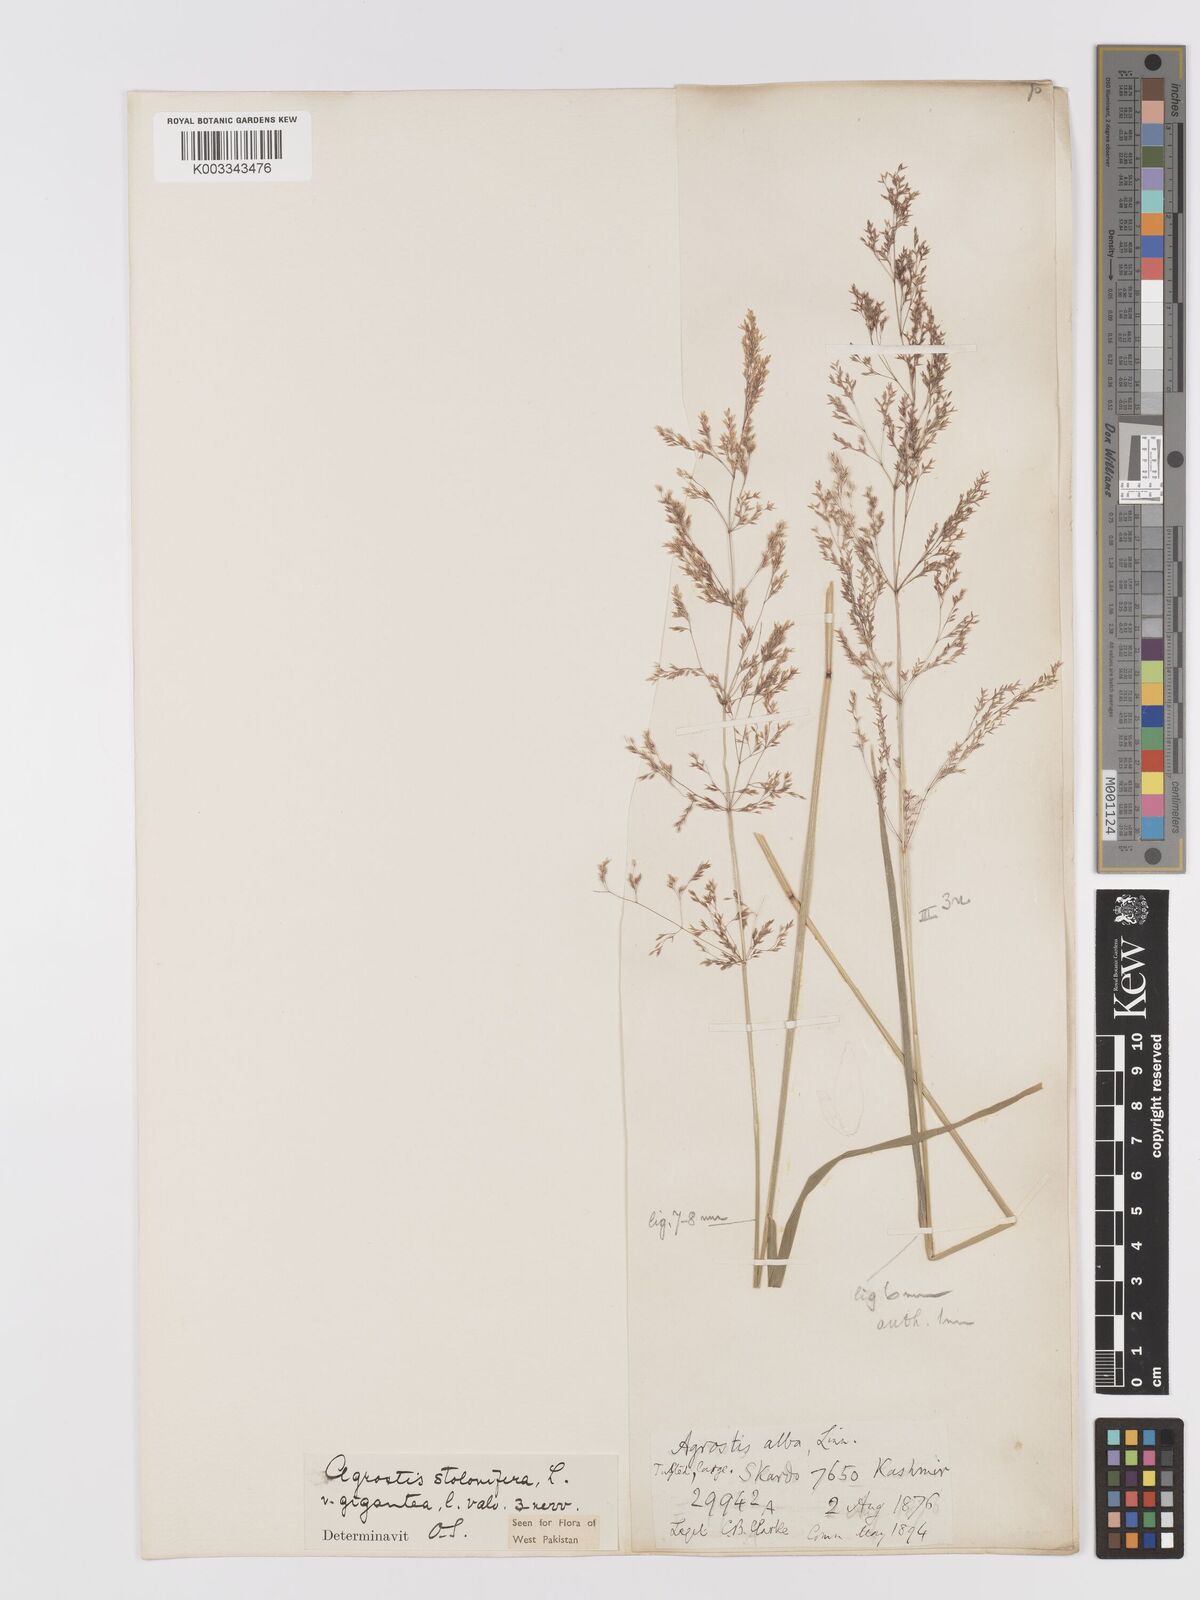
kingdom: Plantae
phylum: Tracheophyta
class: Liliopsida
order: Poales
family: Poaceae
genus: Agrostis
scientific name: Agrostis gigantea
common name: Black bent
